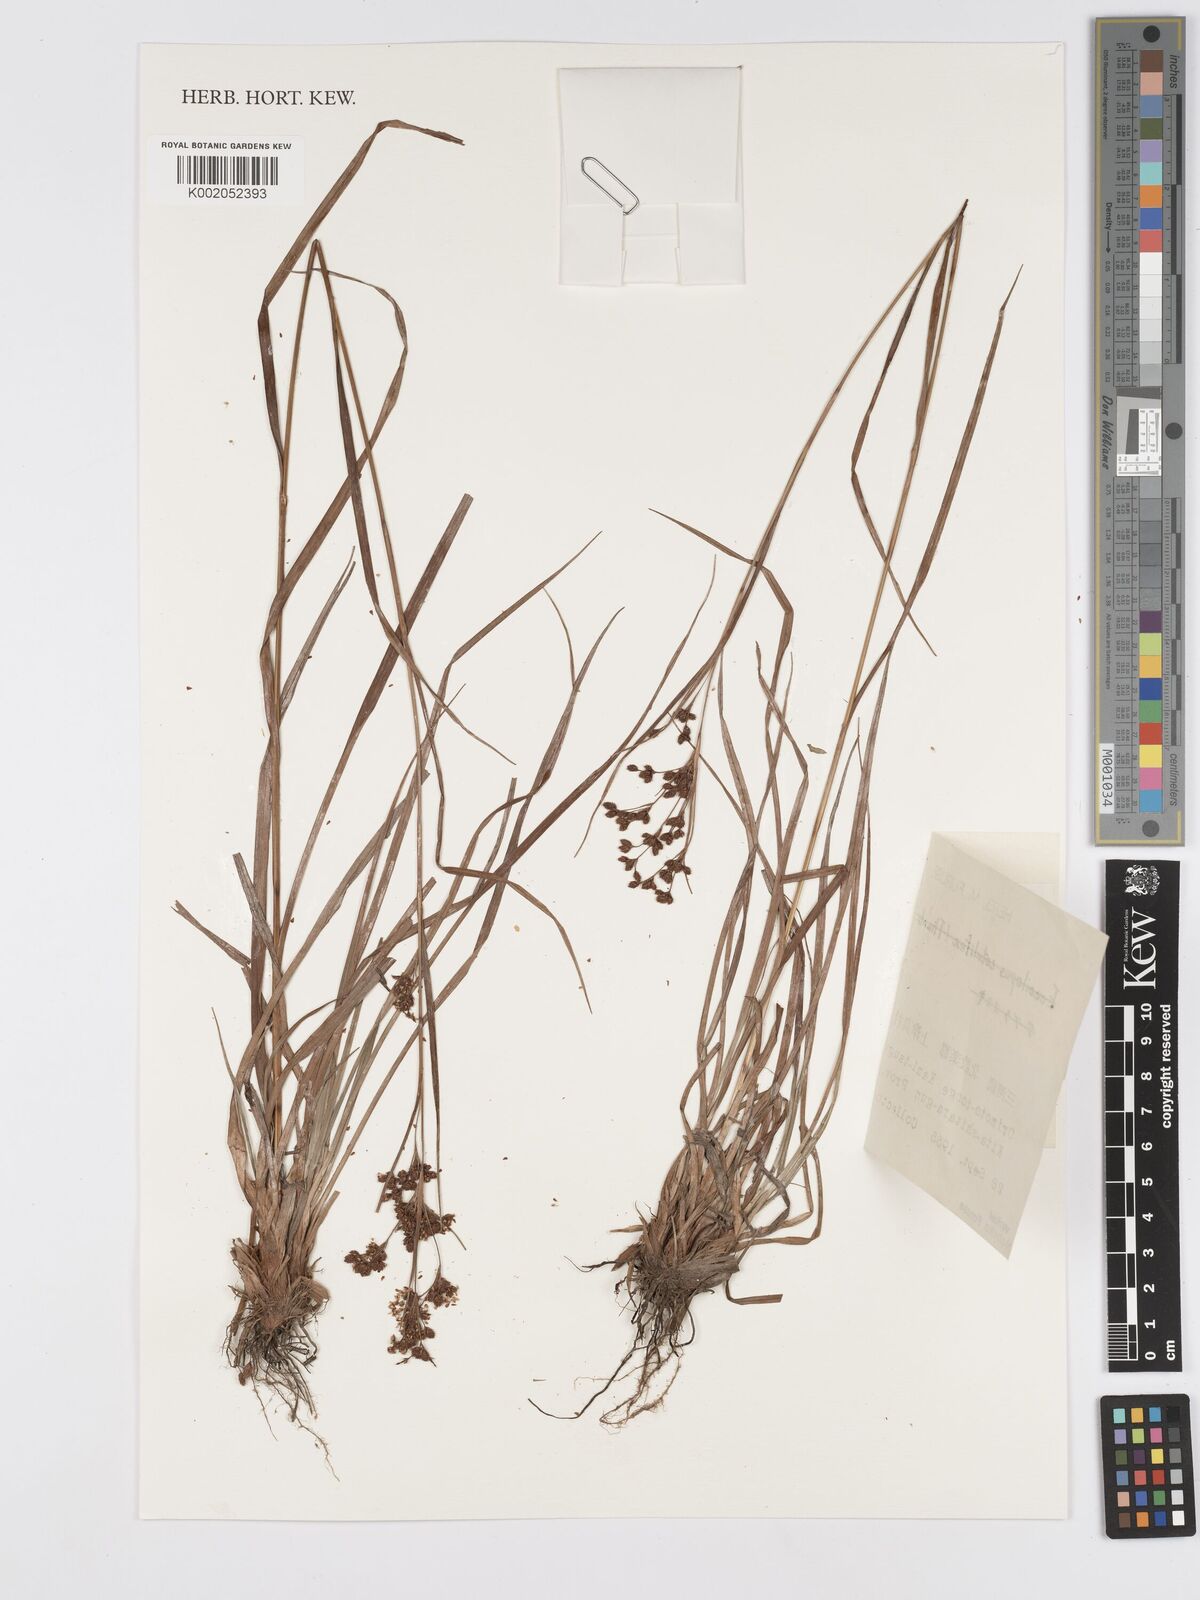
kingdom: Plantae
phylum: Tracheophyta
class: Liliopsida
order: Poales
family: Cyperaceae
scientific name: Cyperaceae
